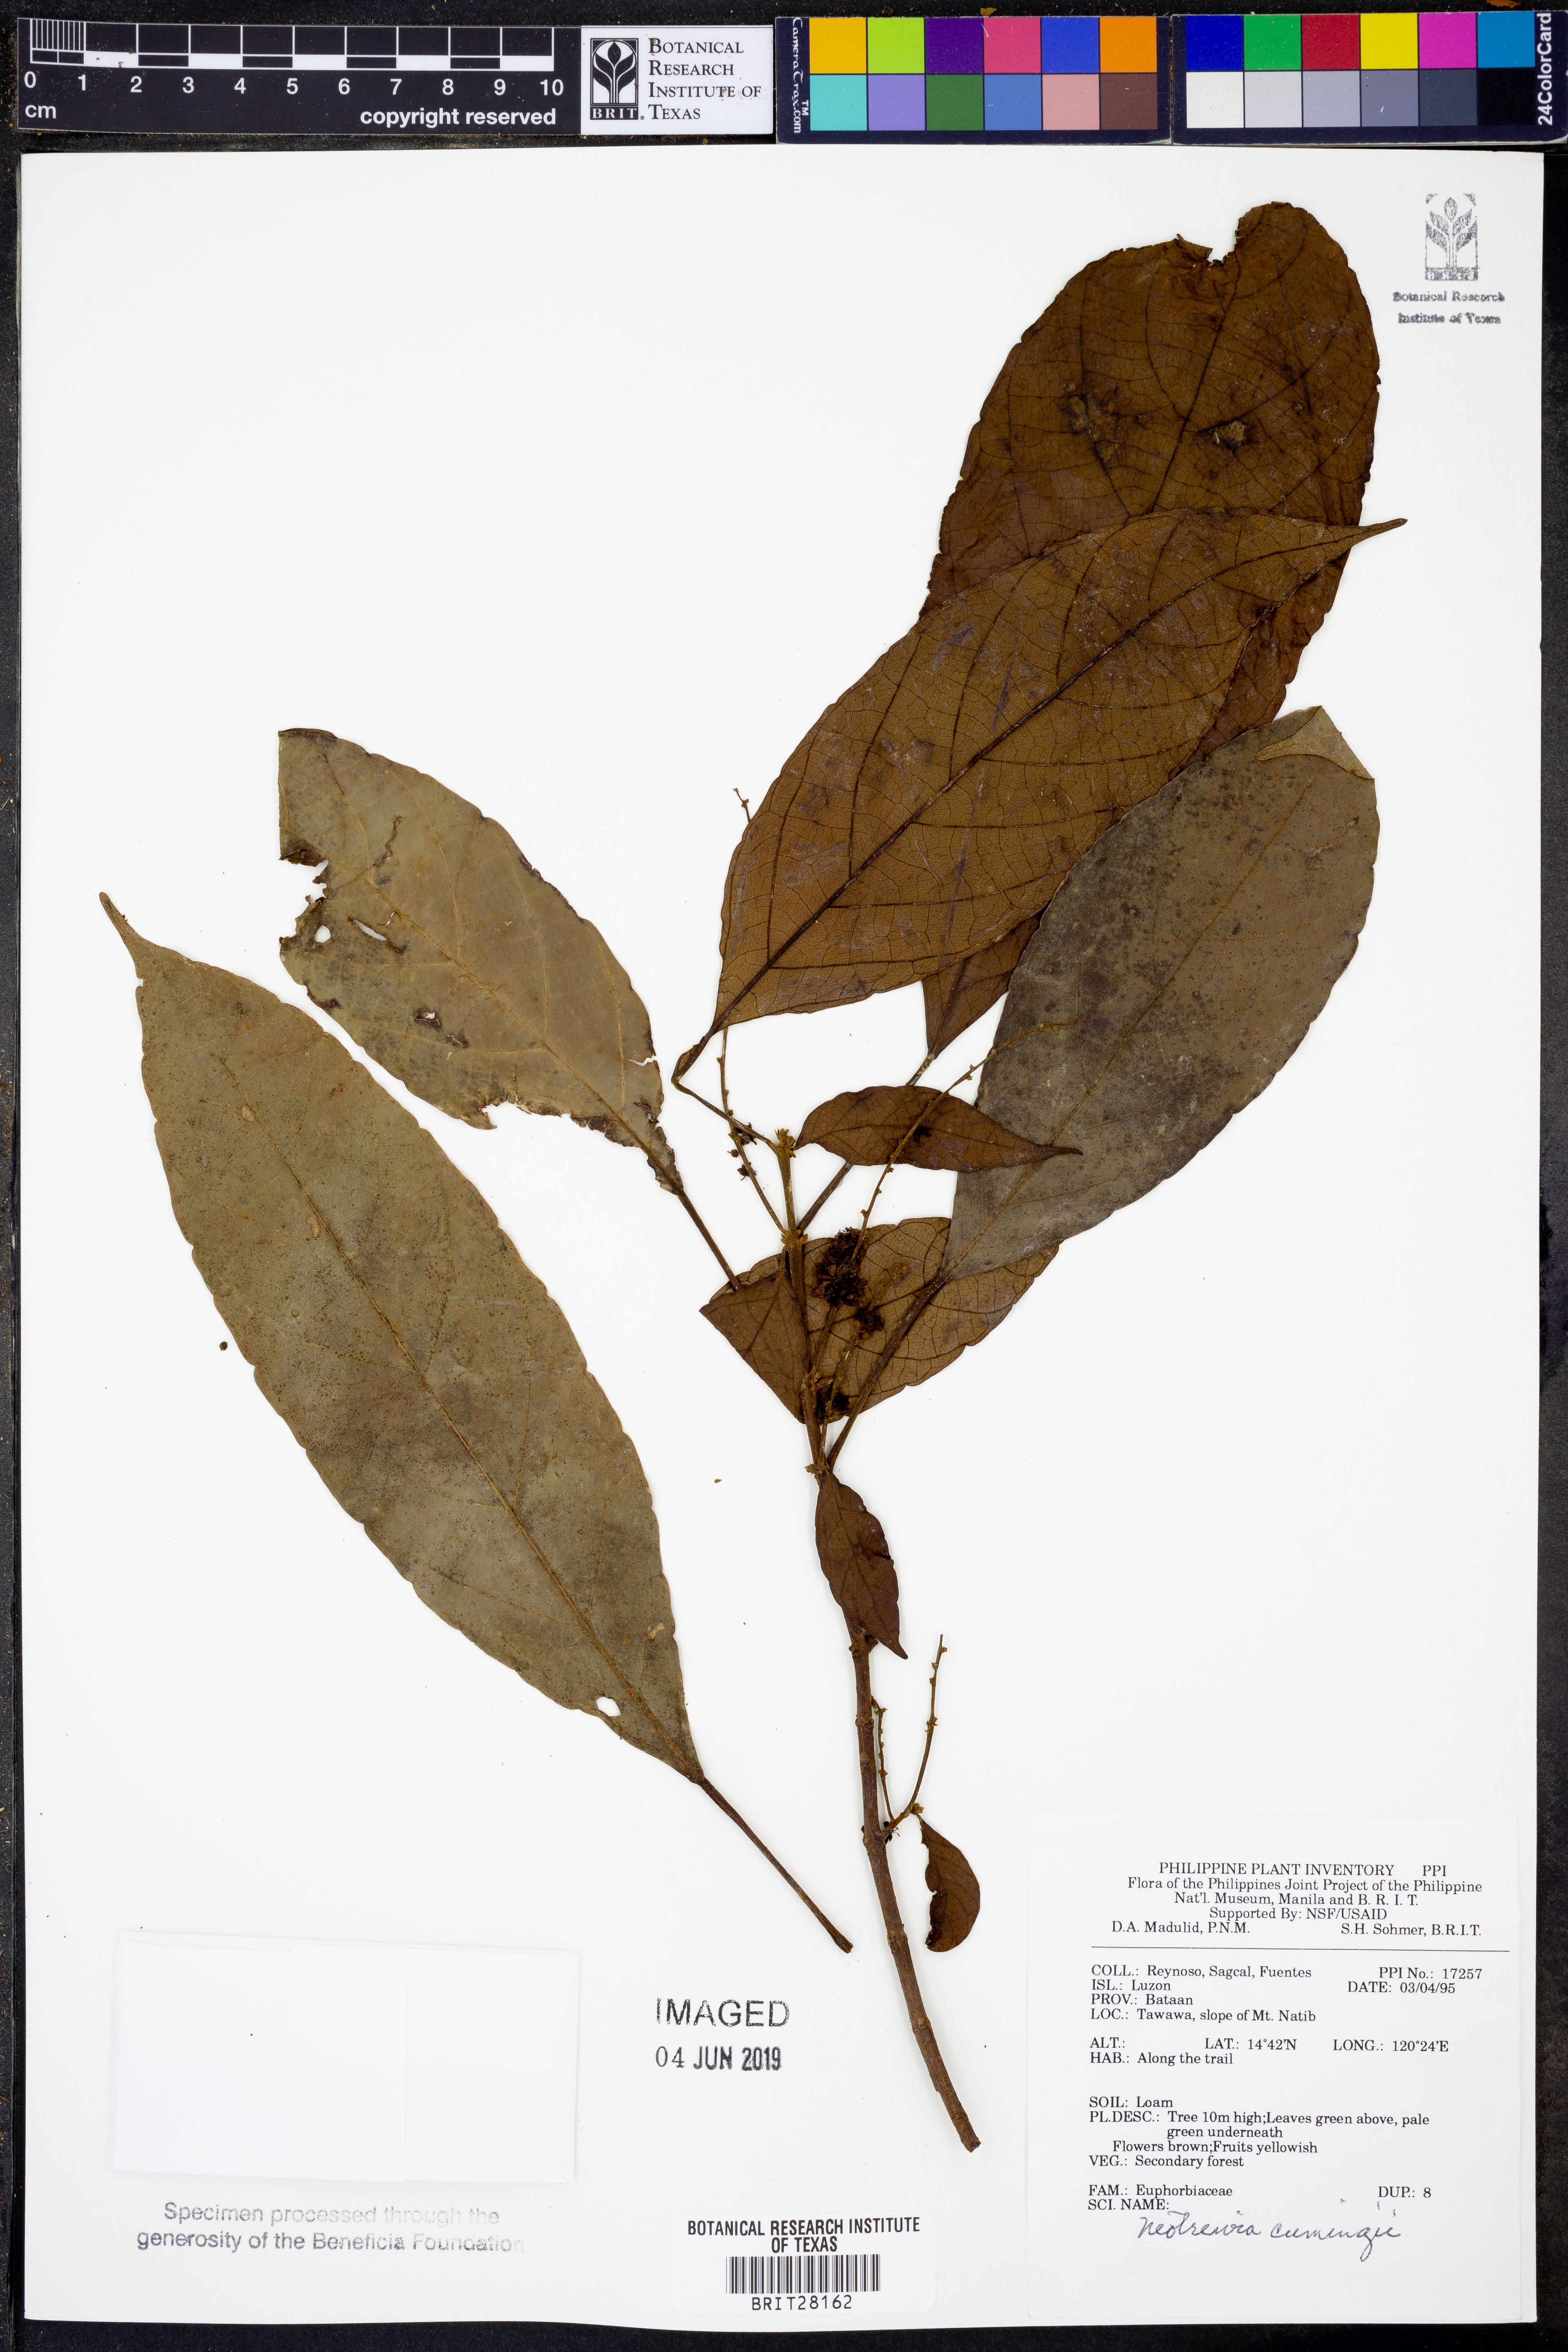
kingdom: Plantae
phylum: Tracheophyta
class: Magnoliopsida
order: Malpighiales
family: Euphorbiaceae
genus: Mallotus
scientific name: Mallotus cumingii
